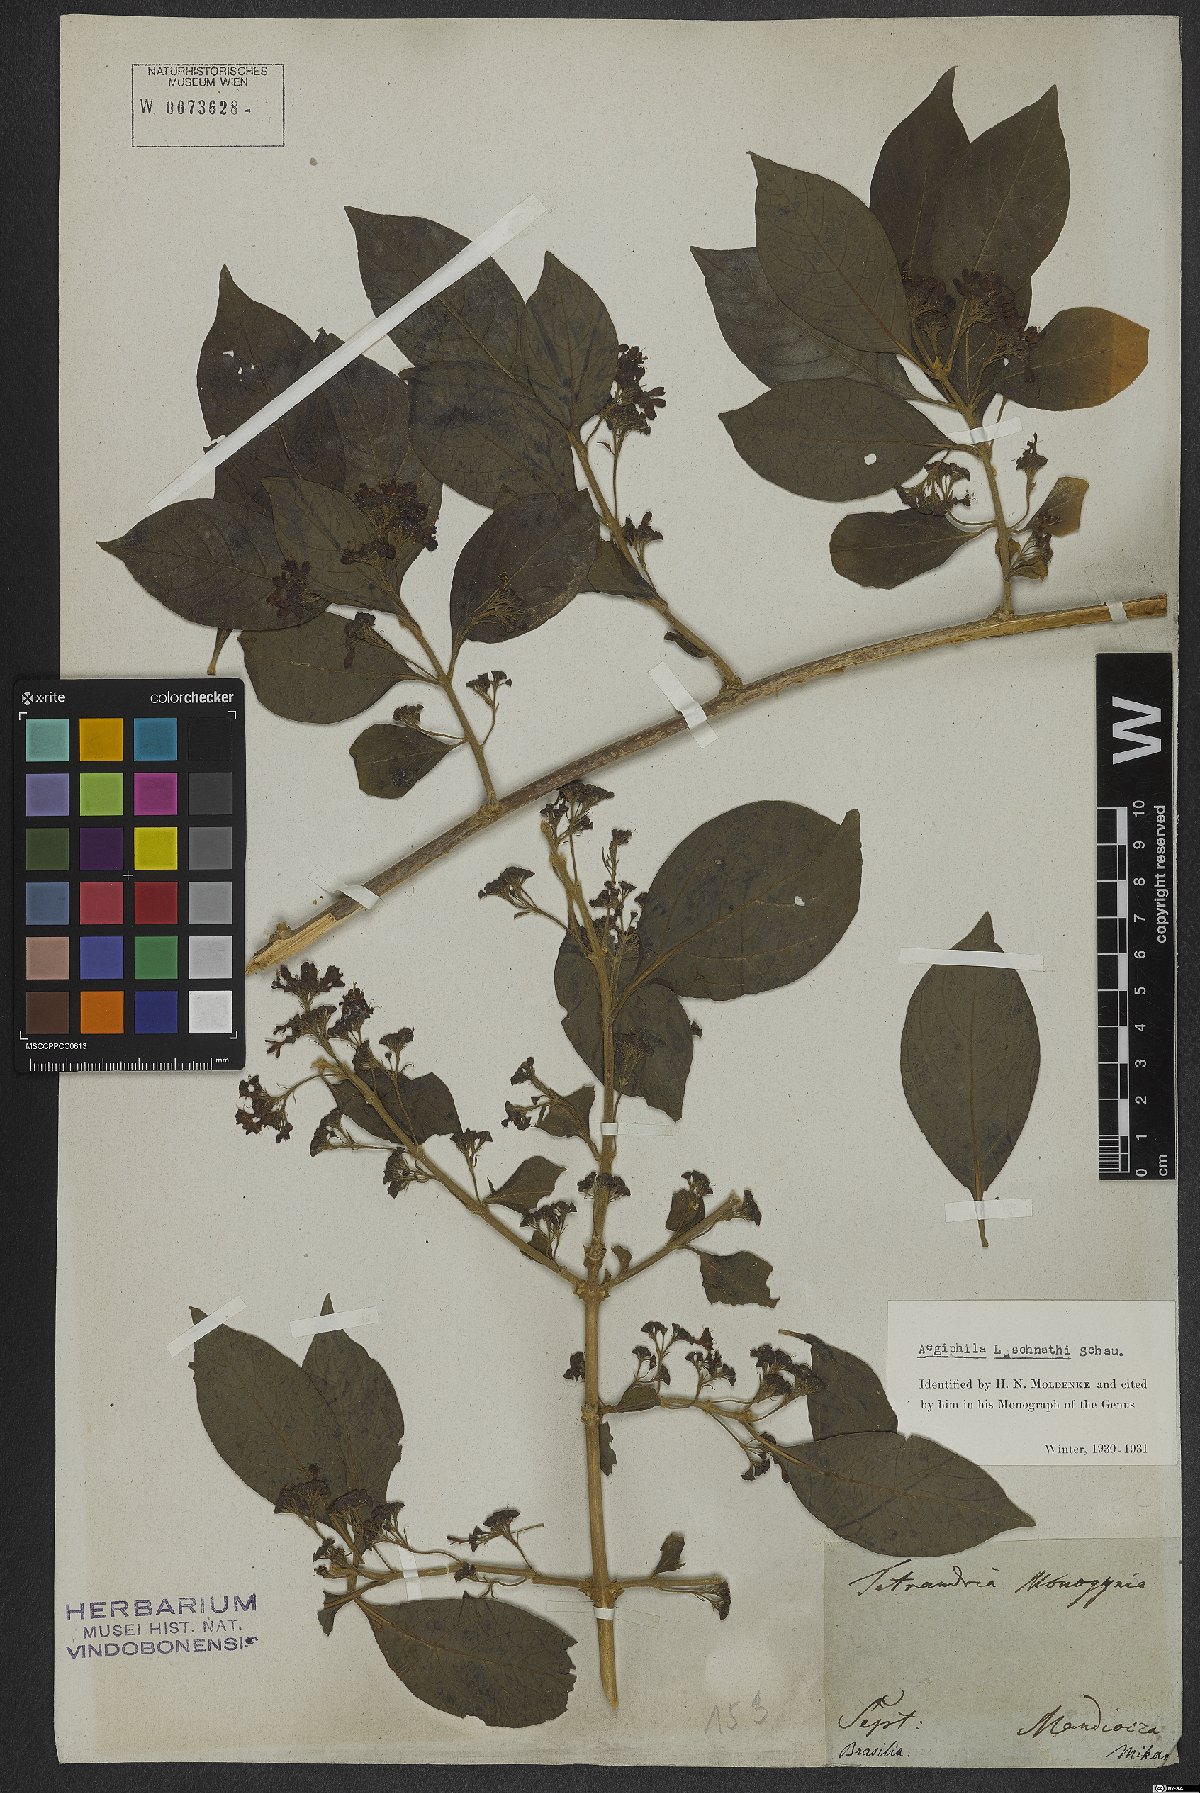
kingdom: Plantae
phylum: Tracheophyta
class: Magnoliopsida
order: Lamiales
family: Lamiaceae
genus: Aegiphila
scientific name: Aegiphila luschnathii
